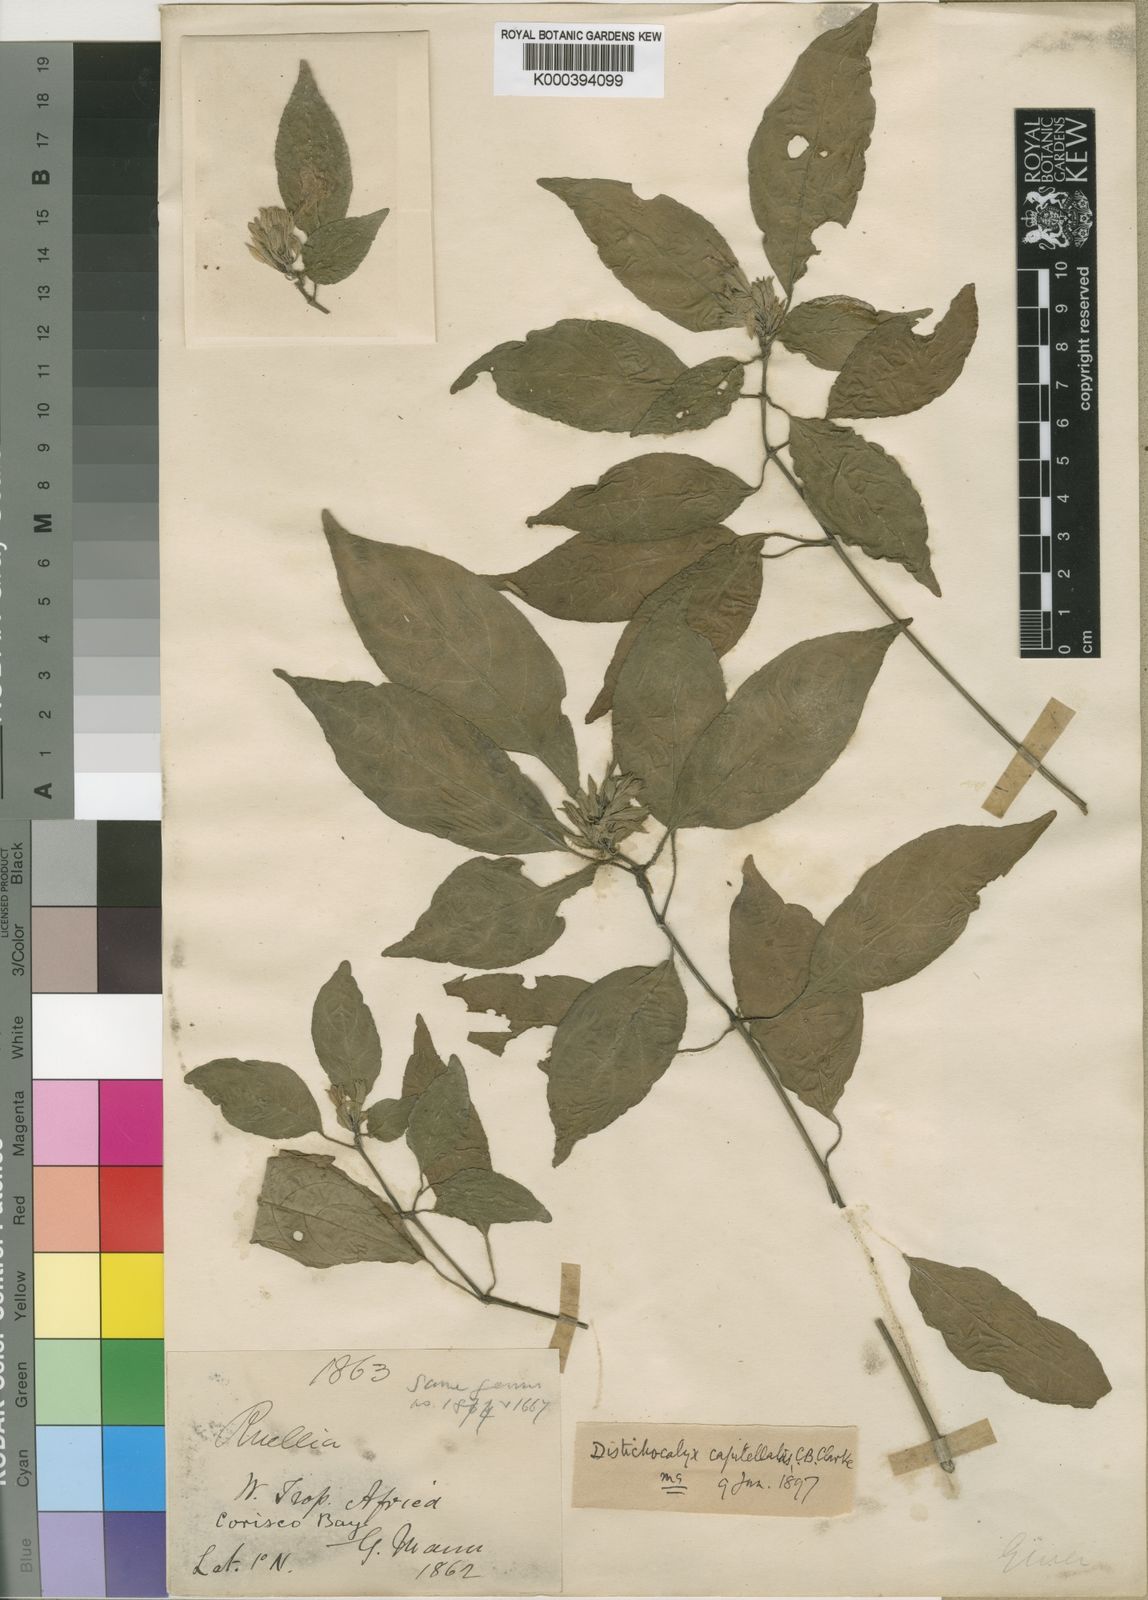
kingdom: Plantae
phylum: Tracheophyta
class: Magnoliopsida
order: Lamiales
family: Acanthaceae
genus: Dischistocalyx
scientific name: Dischistocalyx strobilinus
